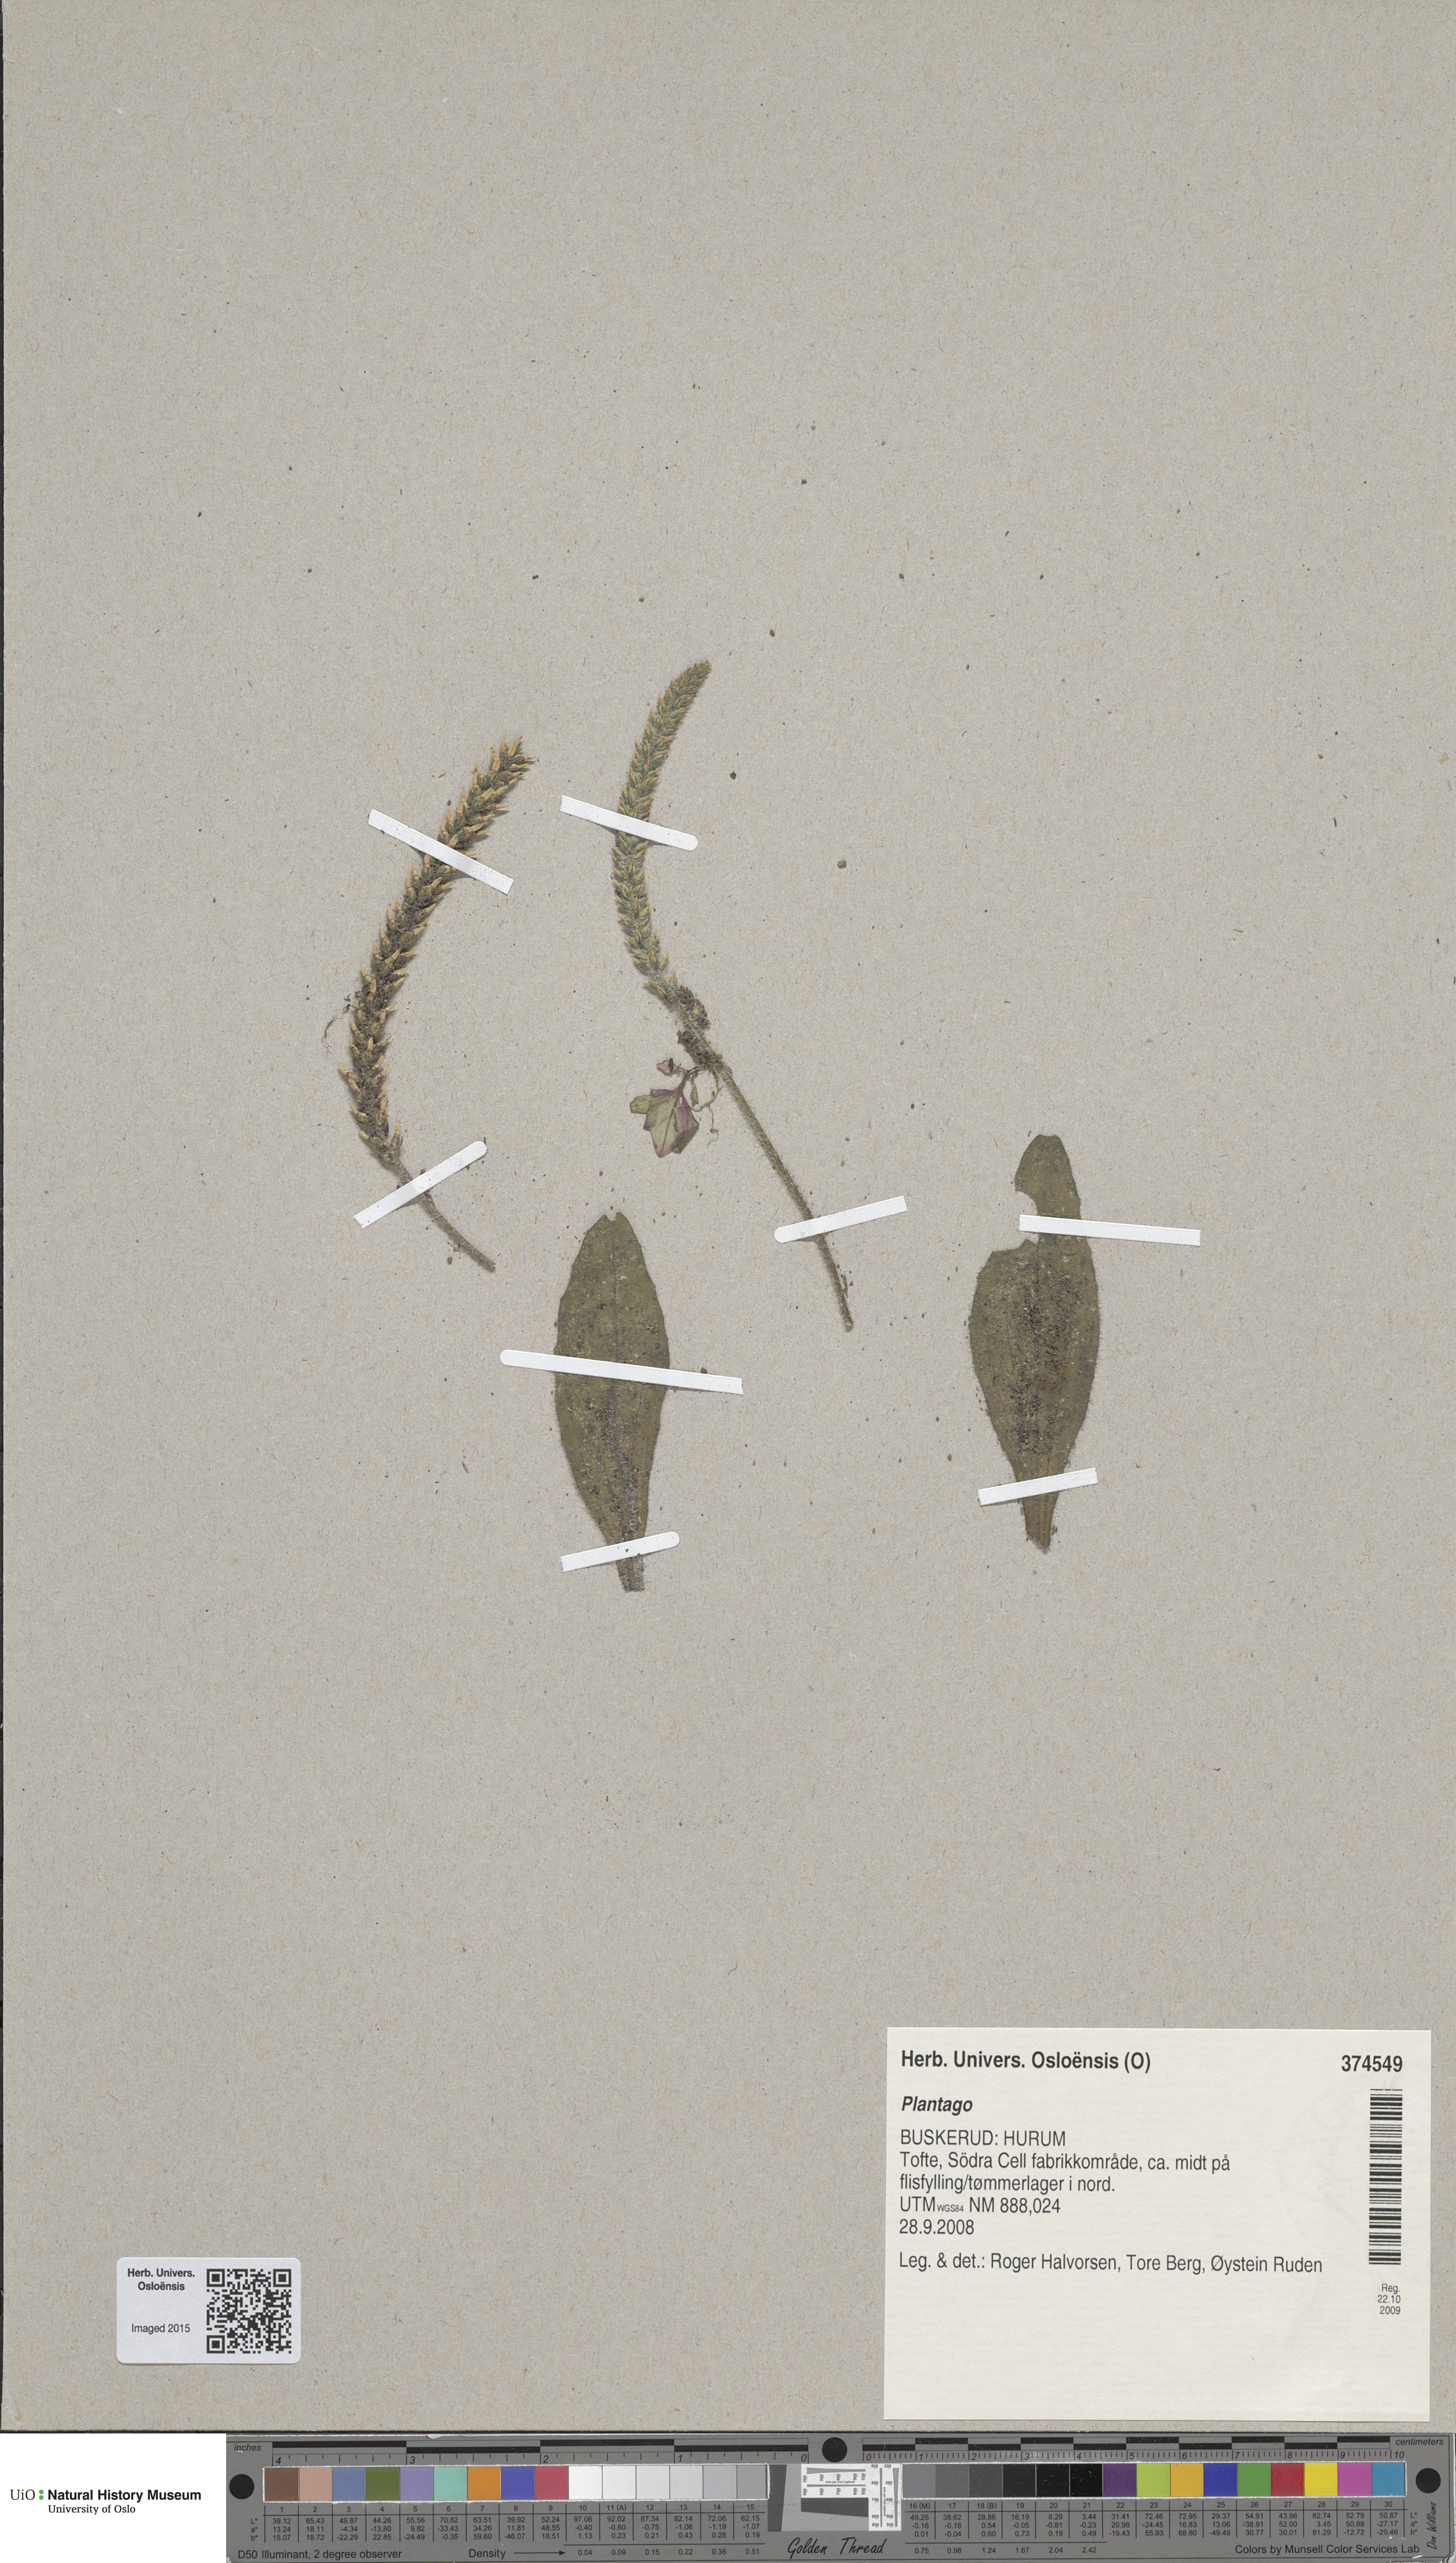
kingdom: Plantae
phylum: Tracheophyta
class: Magnoliopsida
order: Lamiales
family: Plantaginaceae
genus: Plantago
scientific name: Plantago virginica
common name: Hoary plantain
